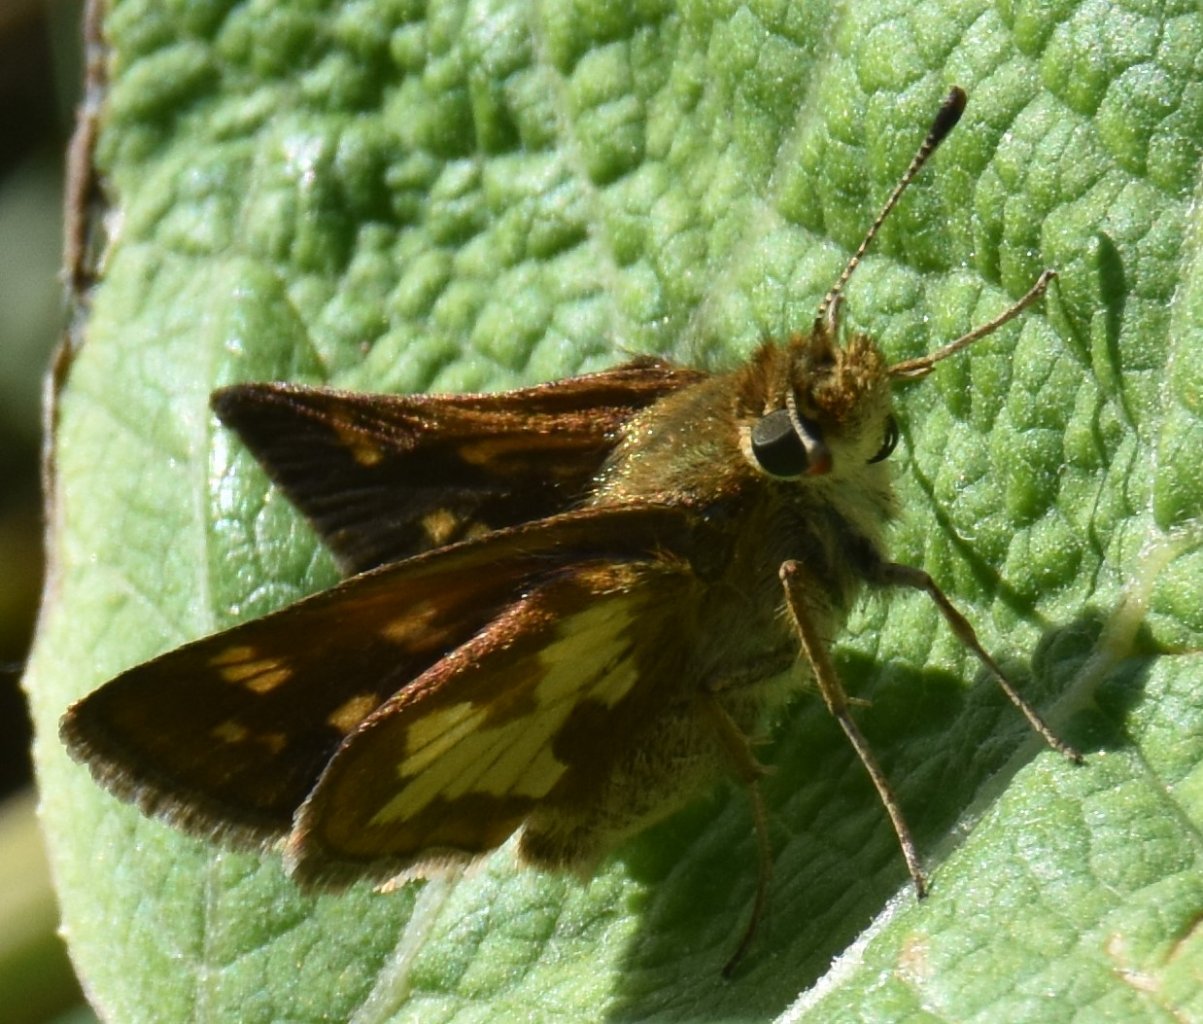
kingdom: Animalia
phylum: Arthropoda
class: Insecta
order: Lepidoptera
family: Hesperiidae
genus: Polites
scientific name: Polites coras
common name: Peck's Skipper
